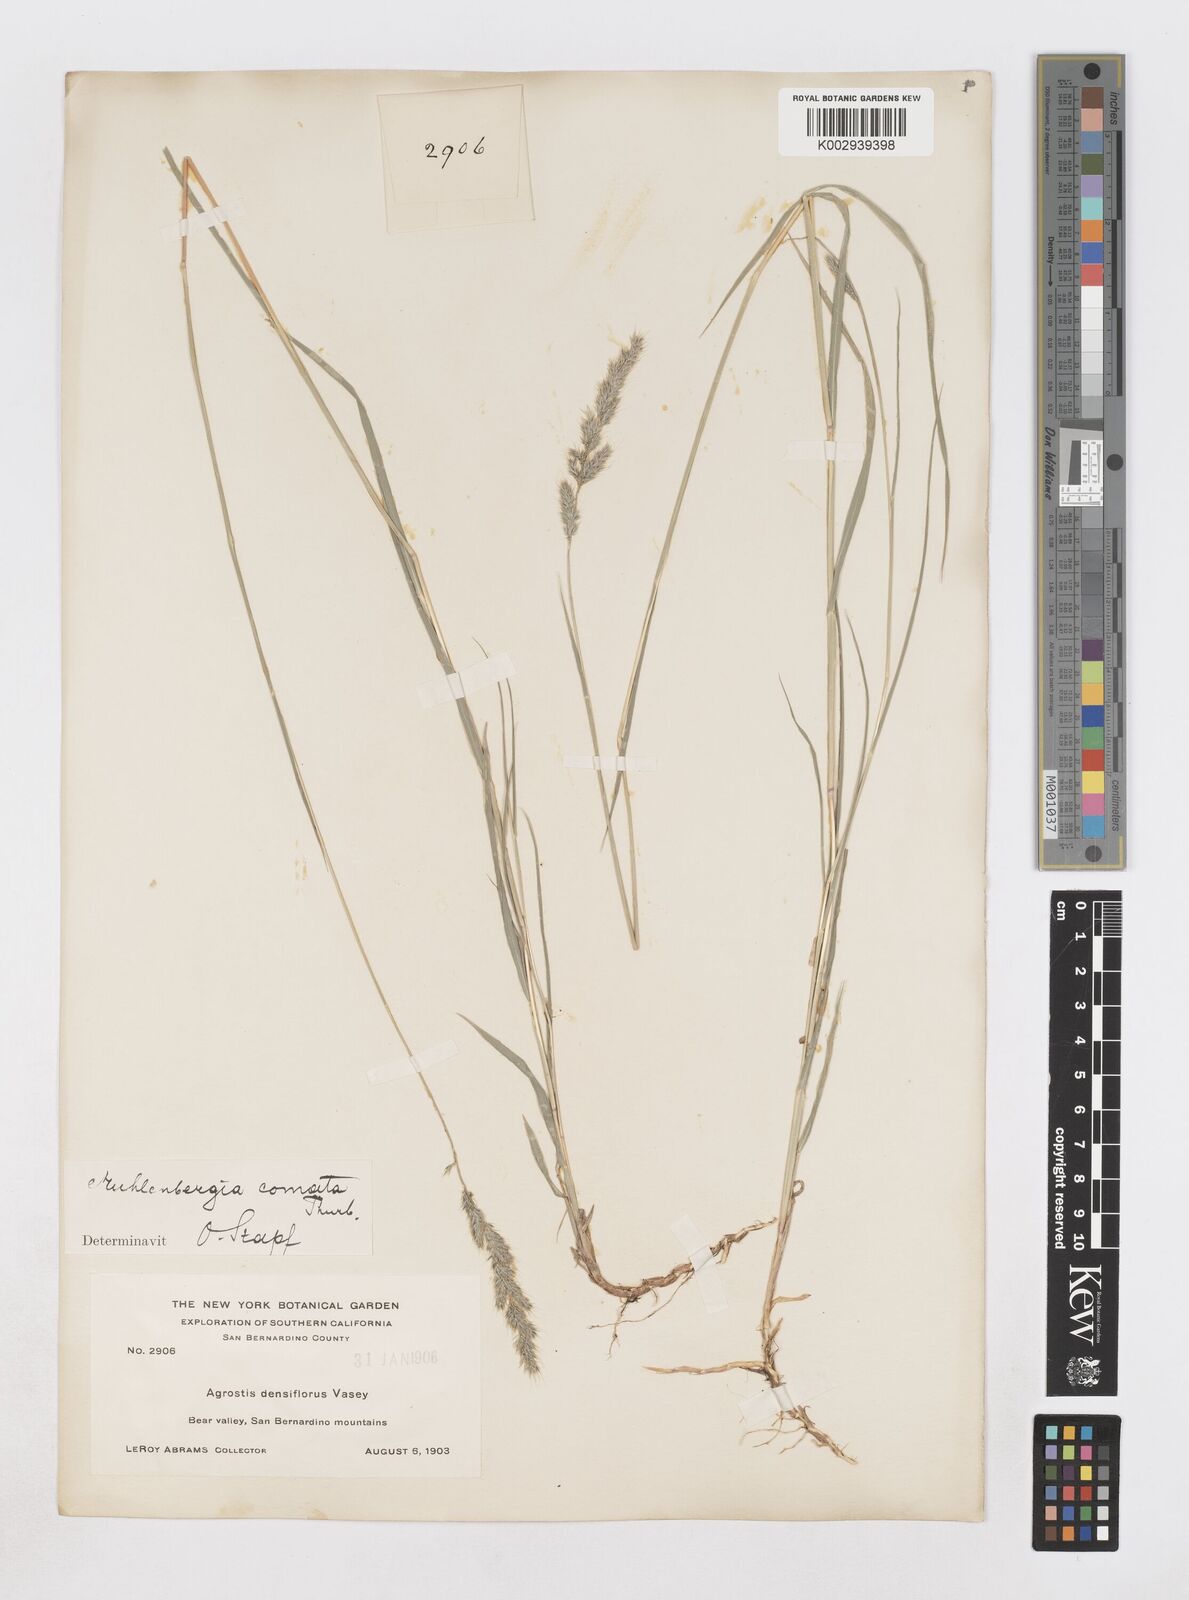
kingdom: Plantae
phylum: Tracheophyta
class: Liliopsida
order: Poales
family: Poaceae
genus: Muhlenbergia
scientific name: Muhlenbergia andina
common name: Foxtail muhly
